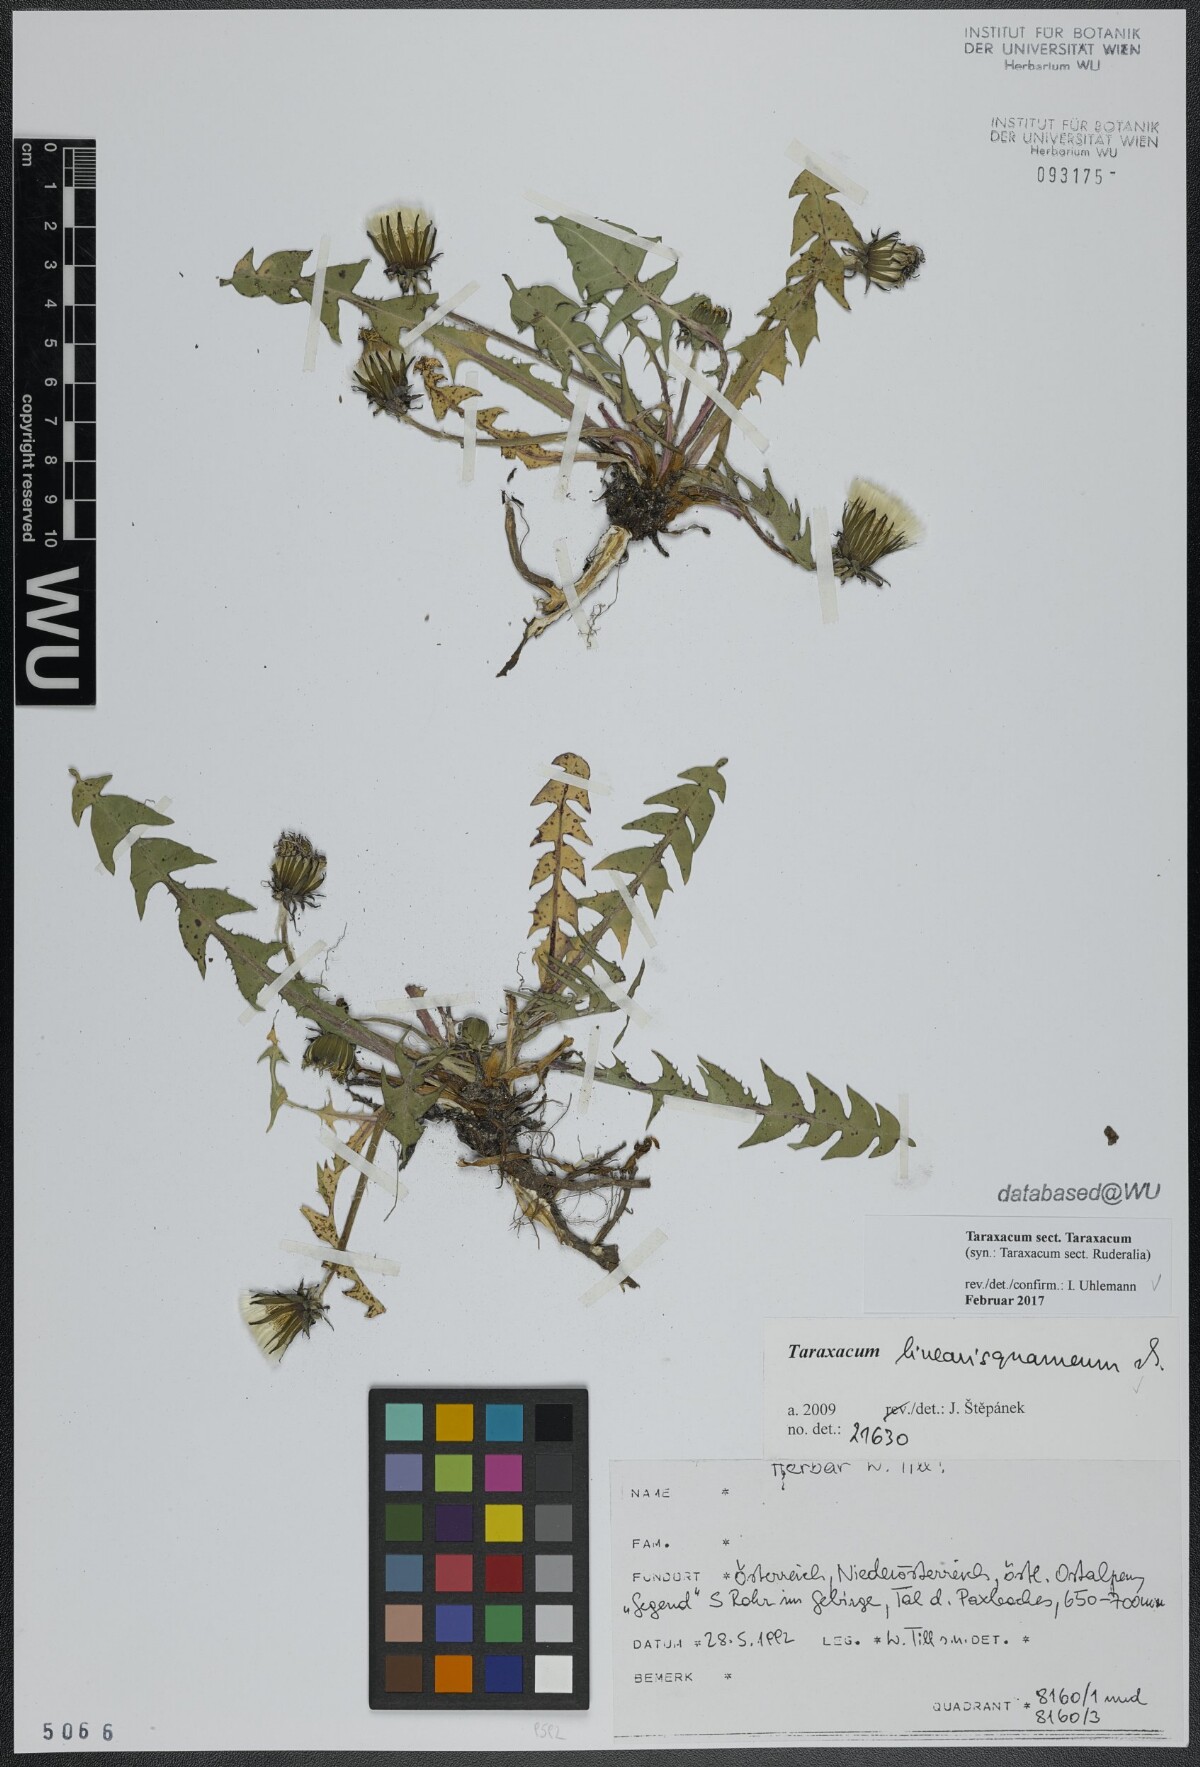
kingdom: Plantae
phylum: Tracheophyta
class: Magnoliopsida
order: Asterales
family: Asteraceae
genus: Taraxacum
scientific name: Taraxacum
